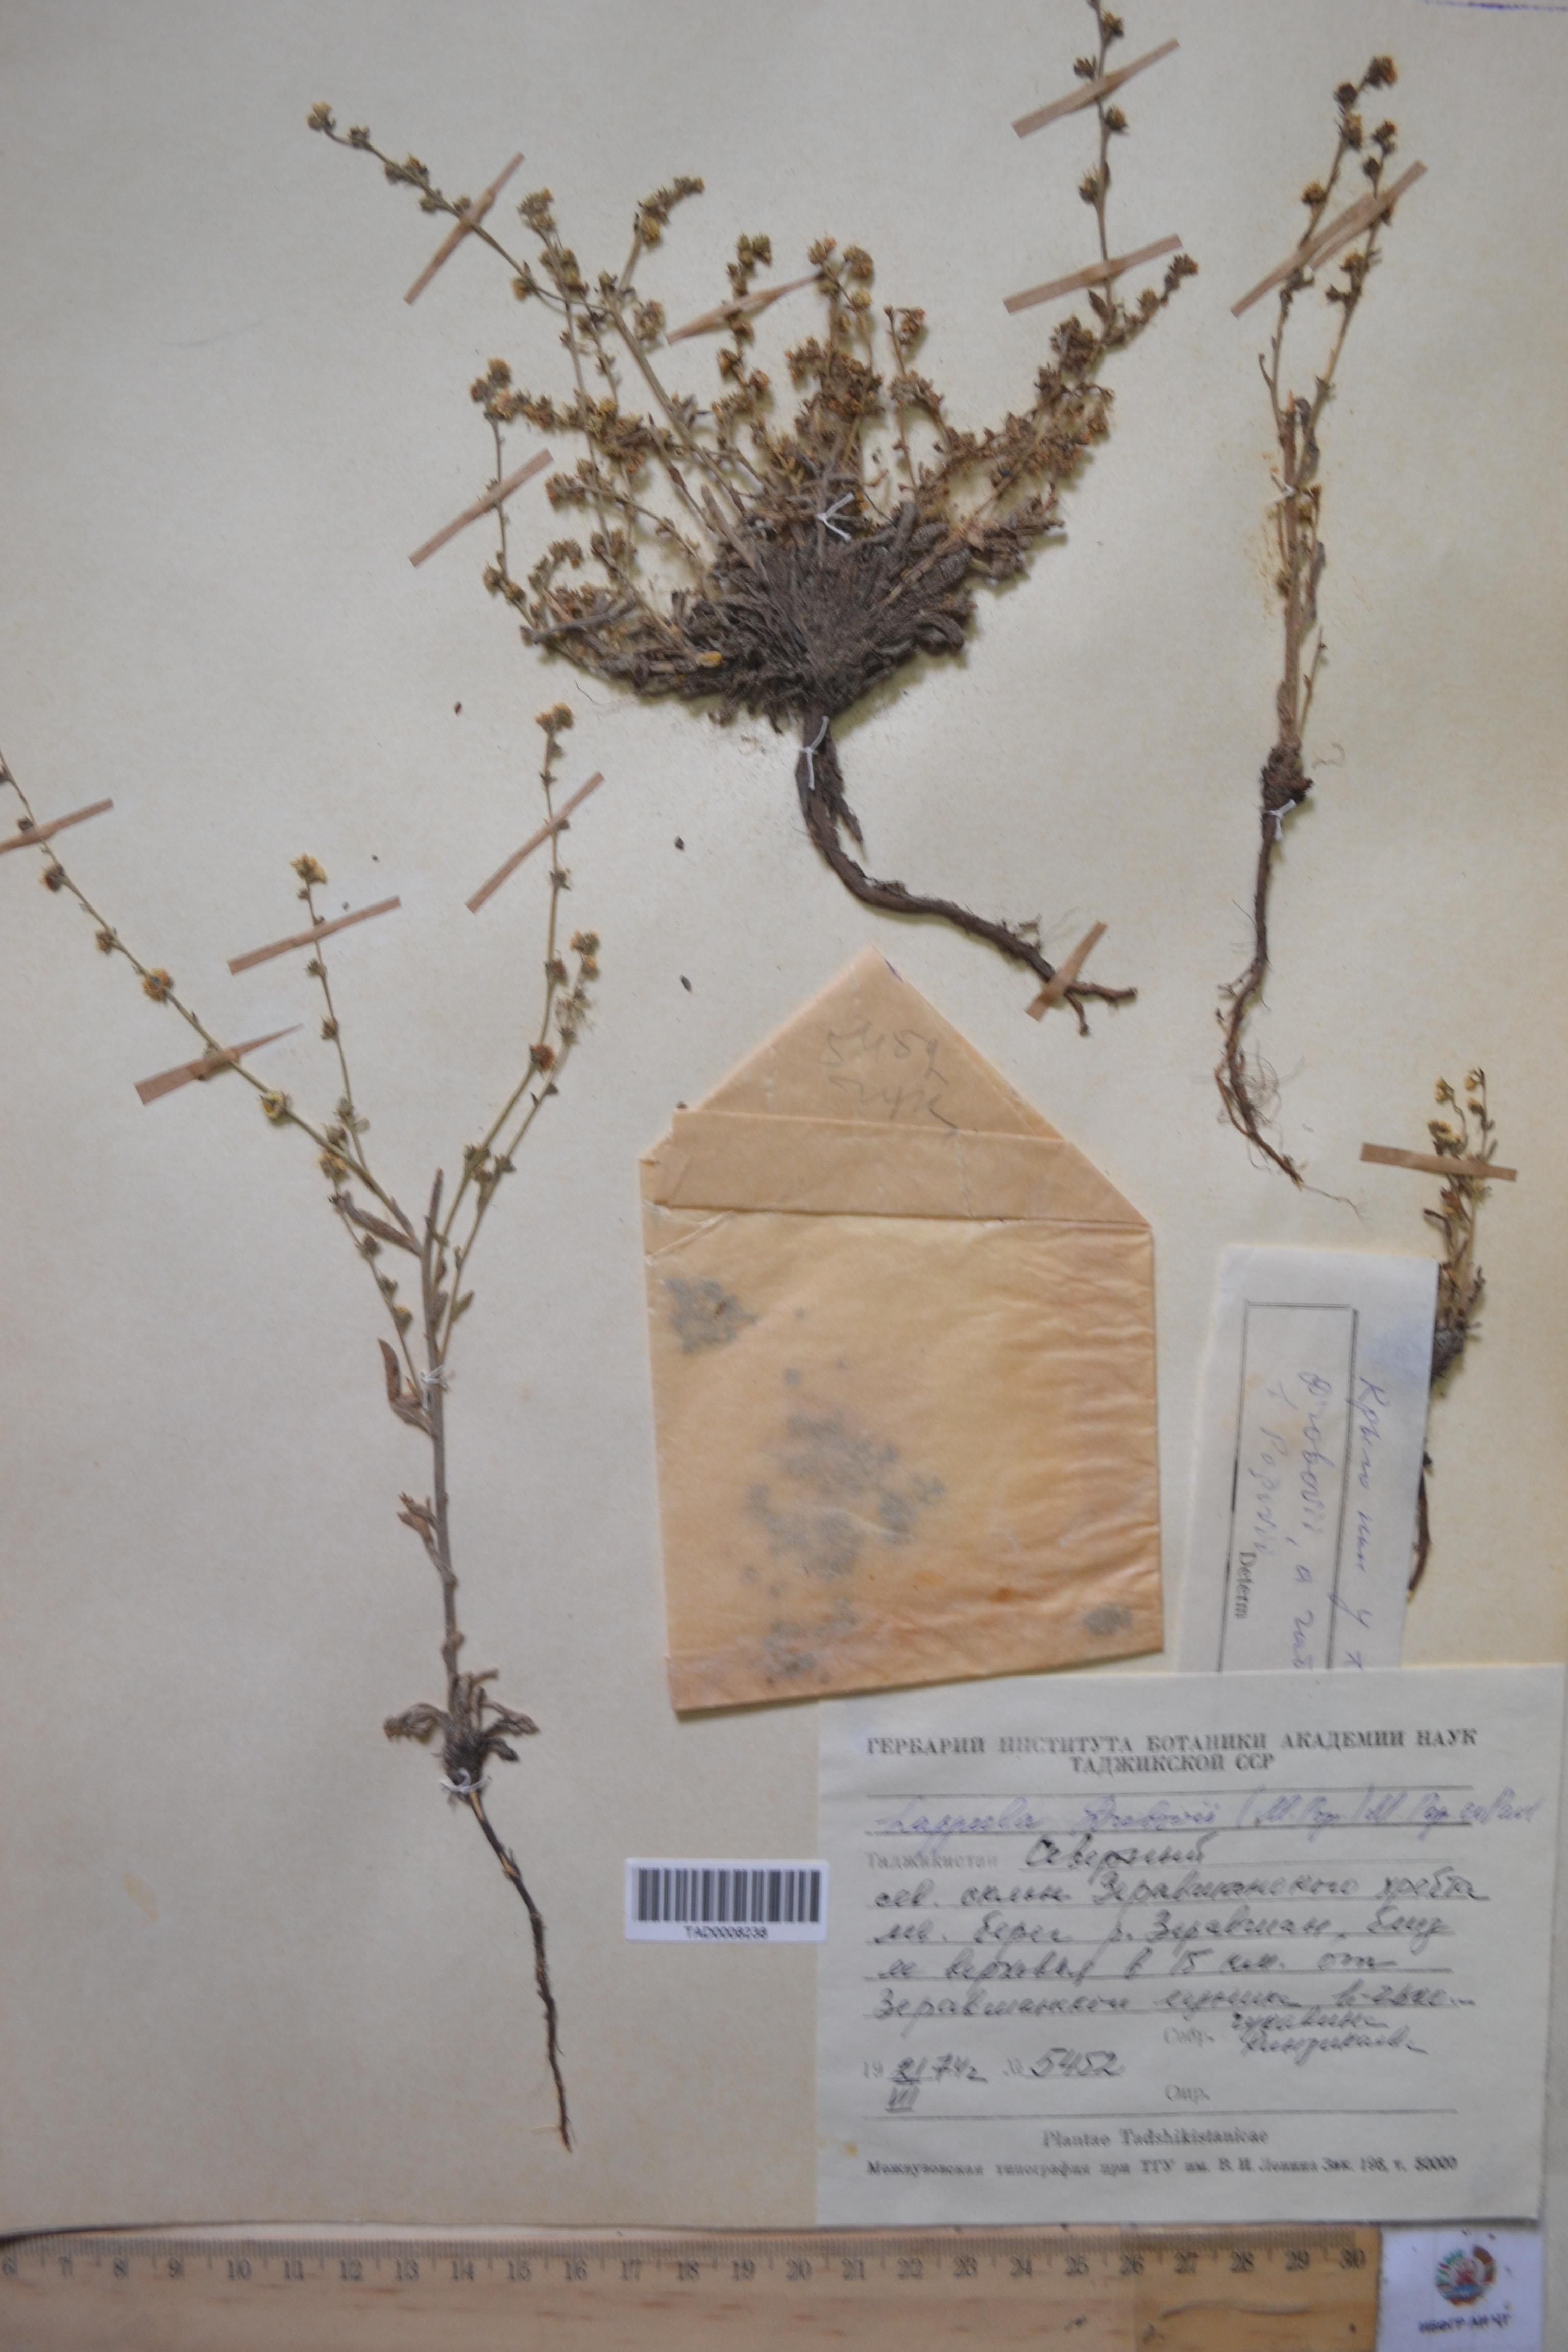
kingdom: Plantae
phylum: Tracheophyta
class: Magnoliopsida
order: Boraginales
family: Boraginaceae
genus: Rochelia
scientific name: Rochelia drobovii
